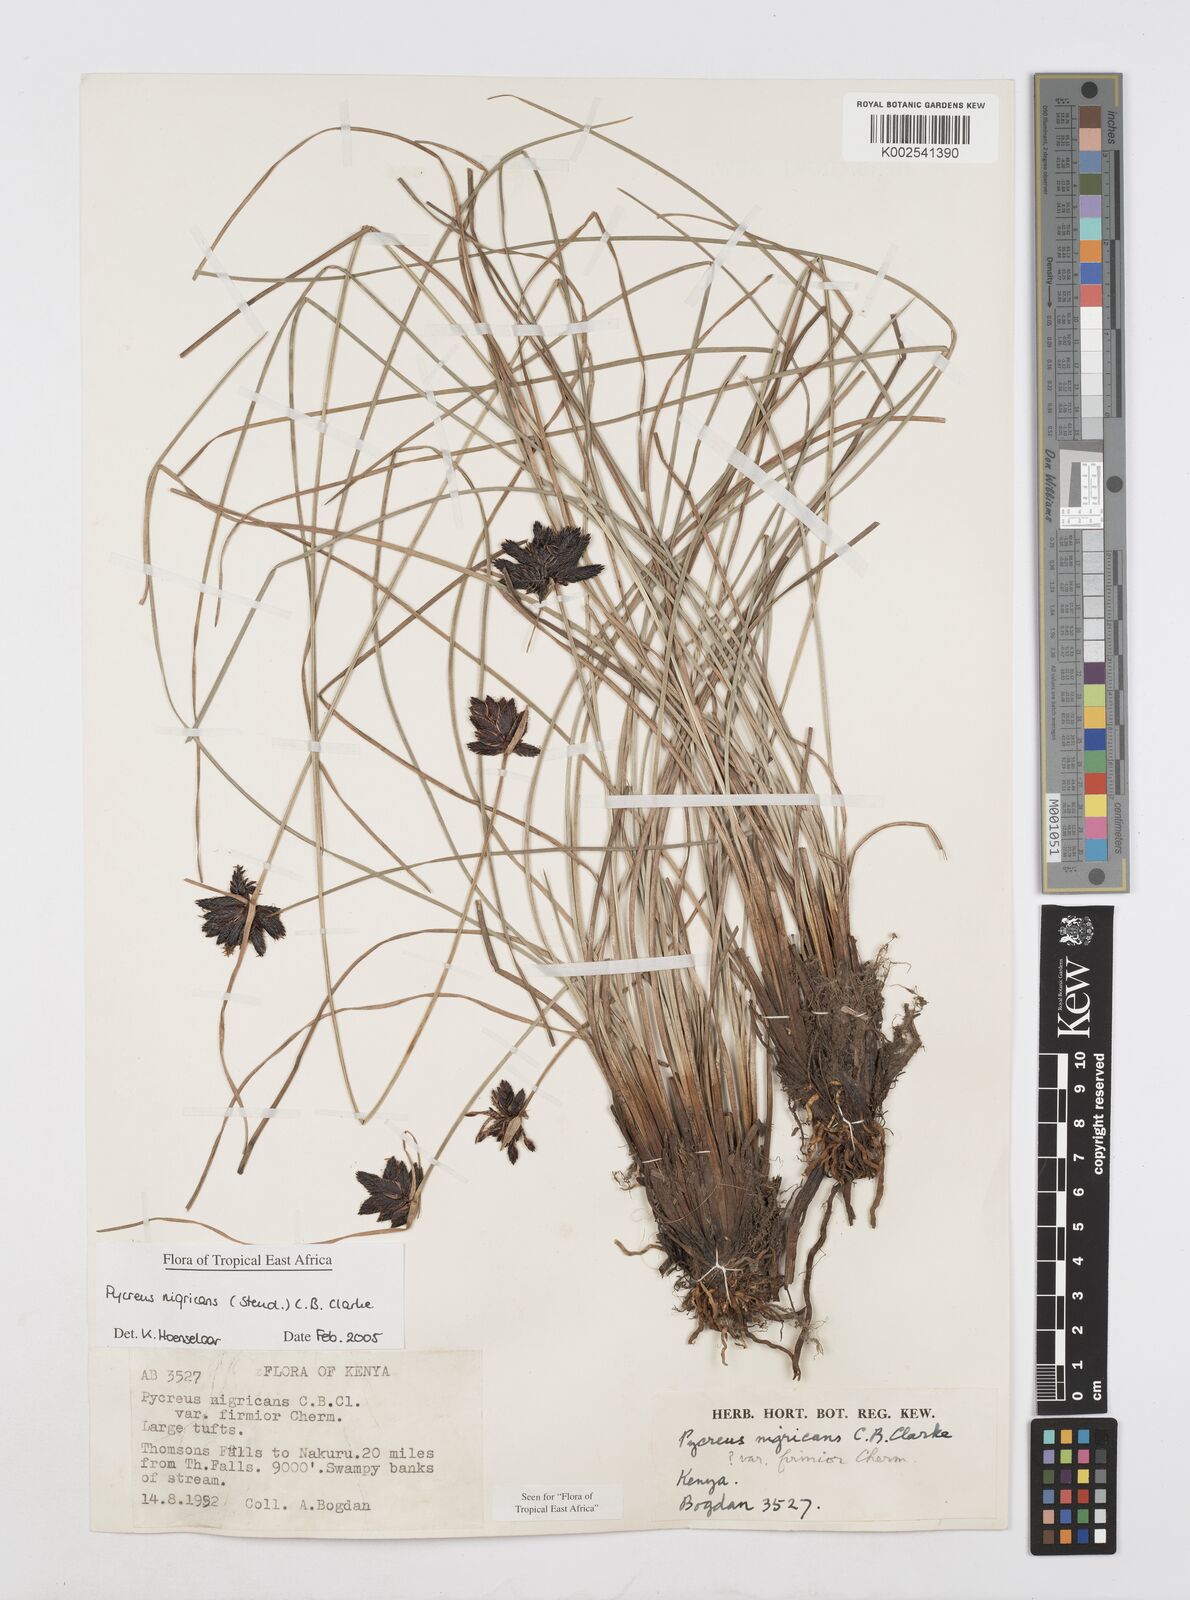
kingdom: Plantae
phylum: Tracheophyta
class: Liliopsida
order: Poales
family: Cyperaceae
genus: Cyperus
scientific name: Cyperus nigricans
